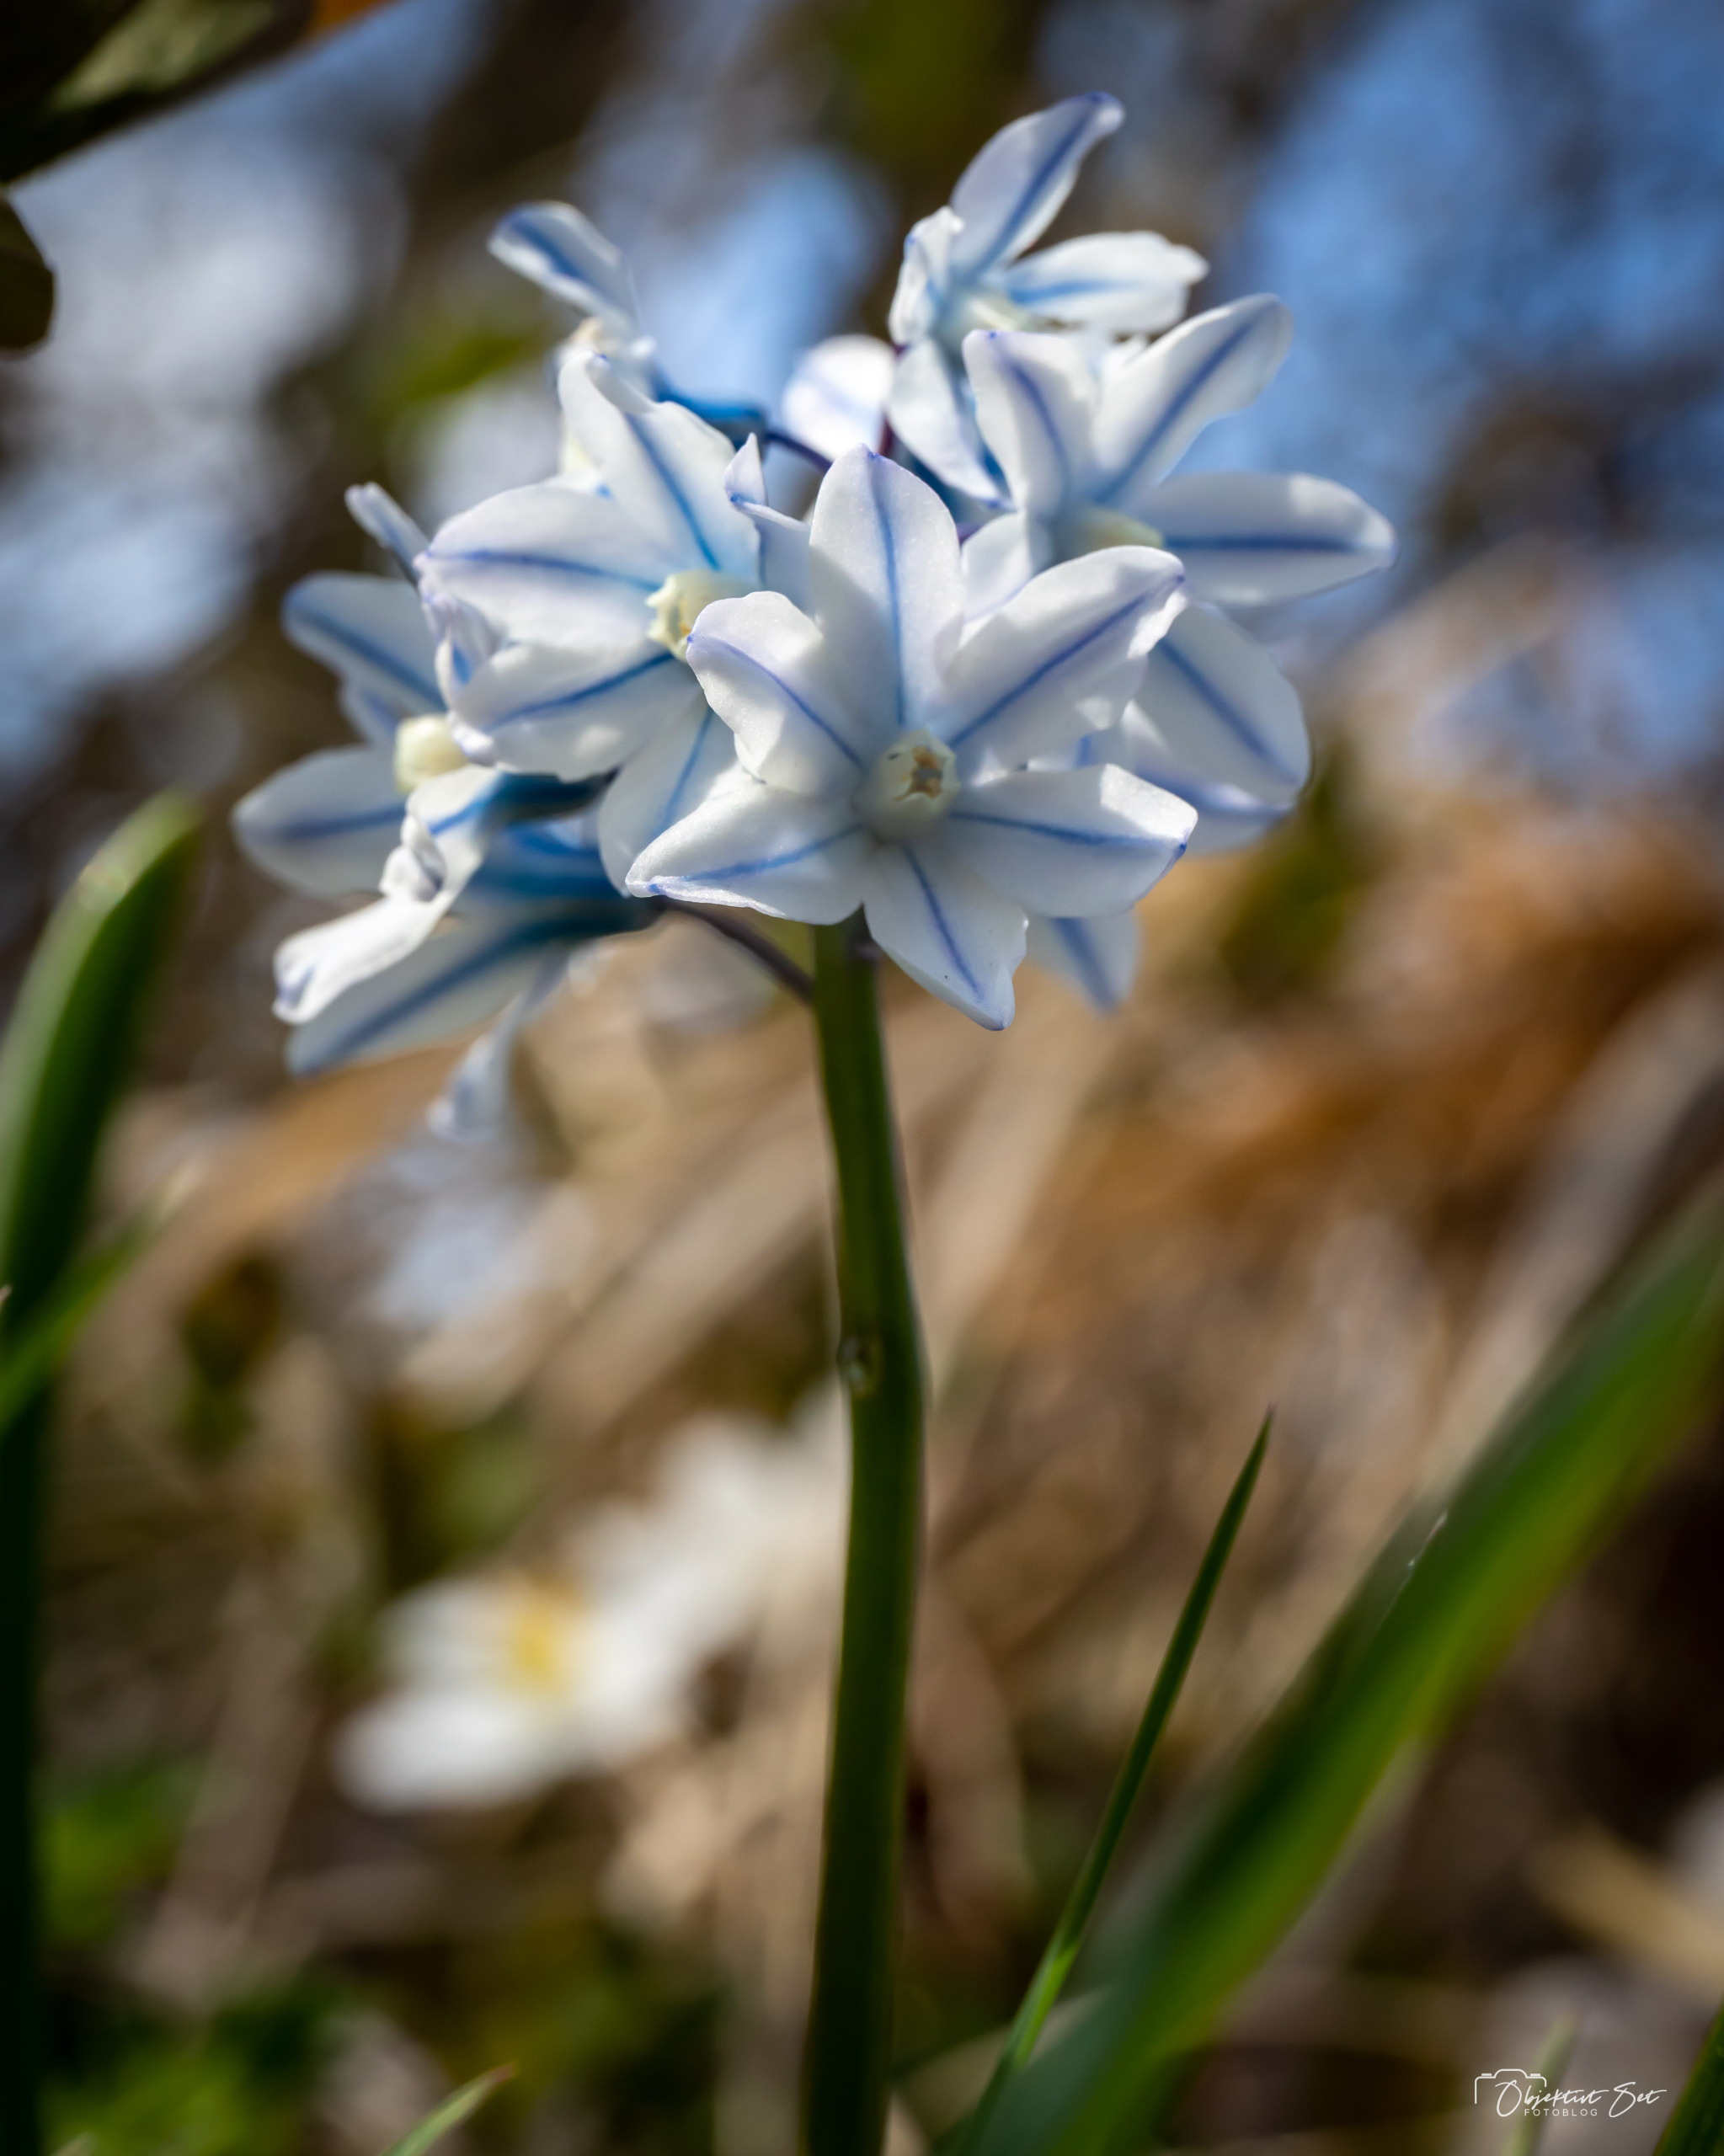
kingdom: Plantae
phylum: Tracheophyta
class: Liliopsida
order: Asparagales
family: Asparagaceae
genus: Puschkinia
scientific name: Puschkinia scilloides
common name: Porcelænshyacint
